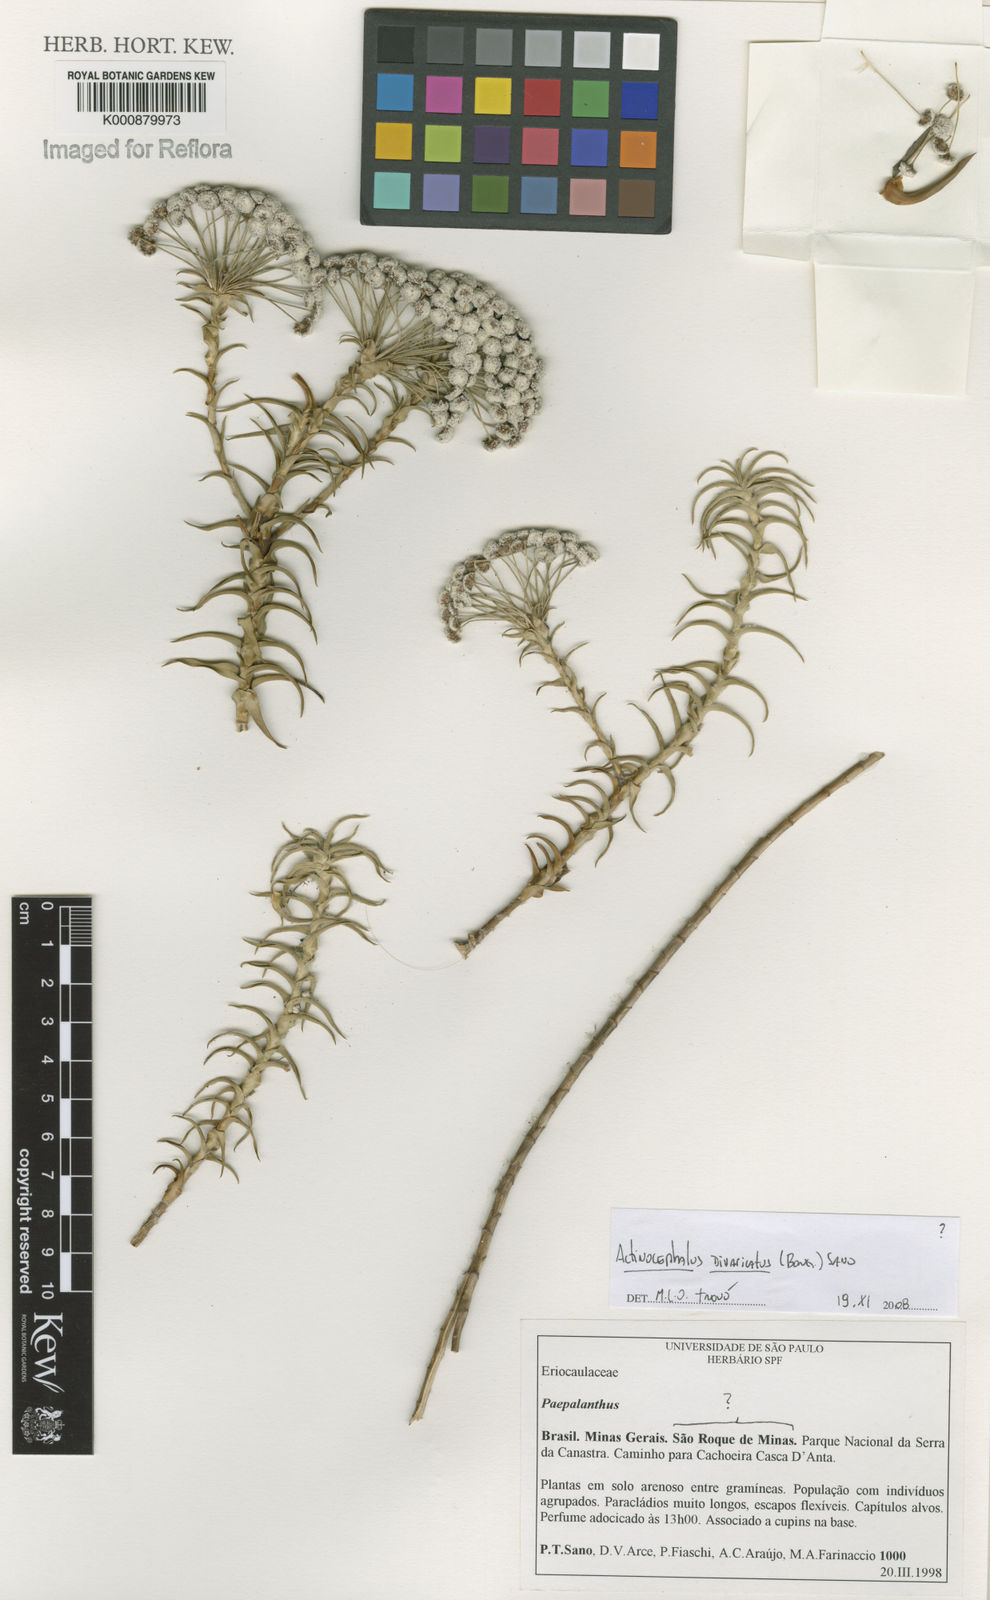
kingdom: Plantae
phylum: Tracheophyta
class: Liliopsida
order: Poales
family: Eriocaulaceae
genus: Paepalanthus
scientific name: Paepalanthus divaricatus
